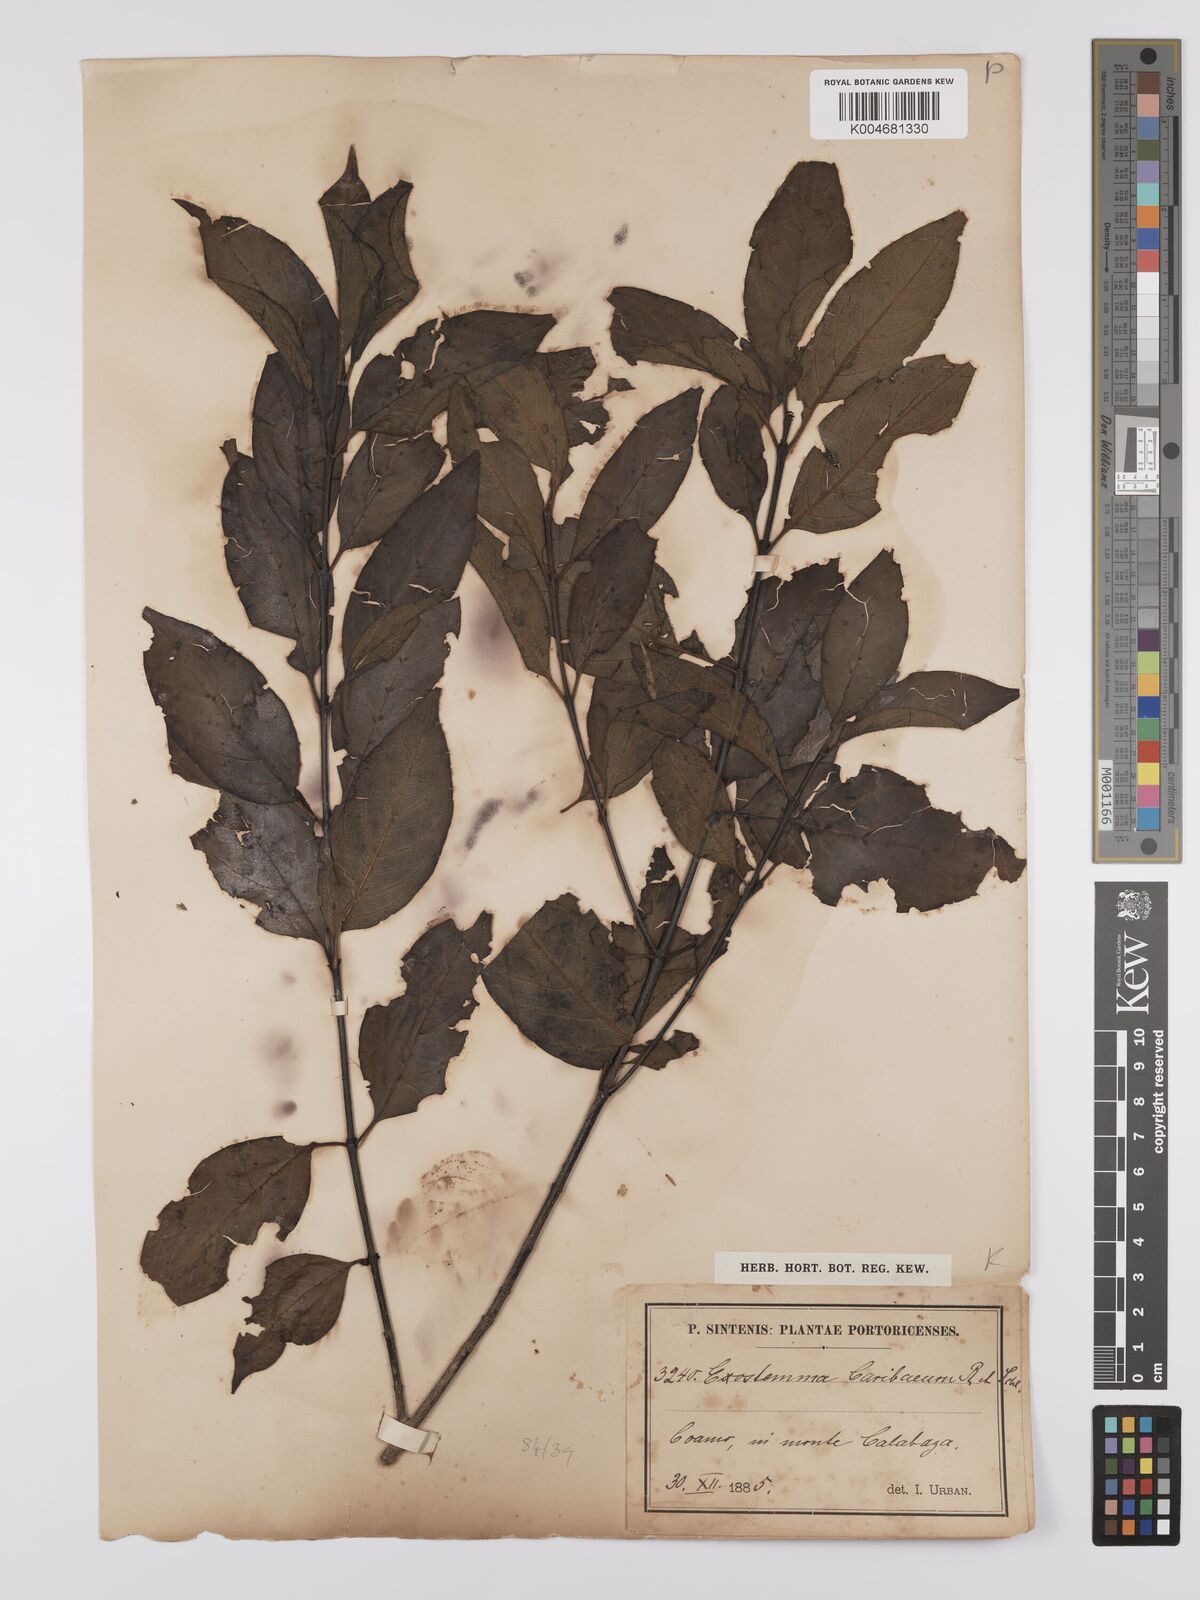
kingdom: Plantae
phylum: Tracheophyta
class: Magnoliopsida
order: Gentianales
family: Rubiaceae
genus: Exostema
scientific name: Exostema caribaeum
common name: Princewood
